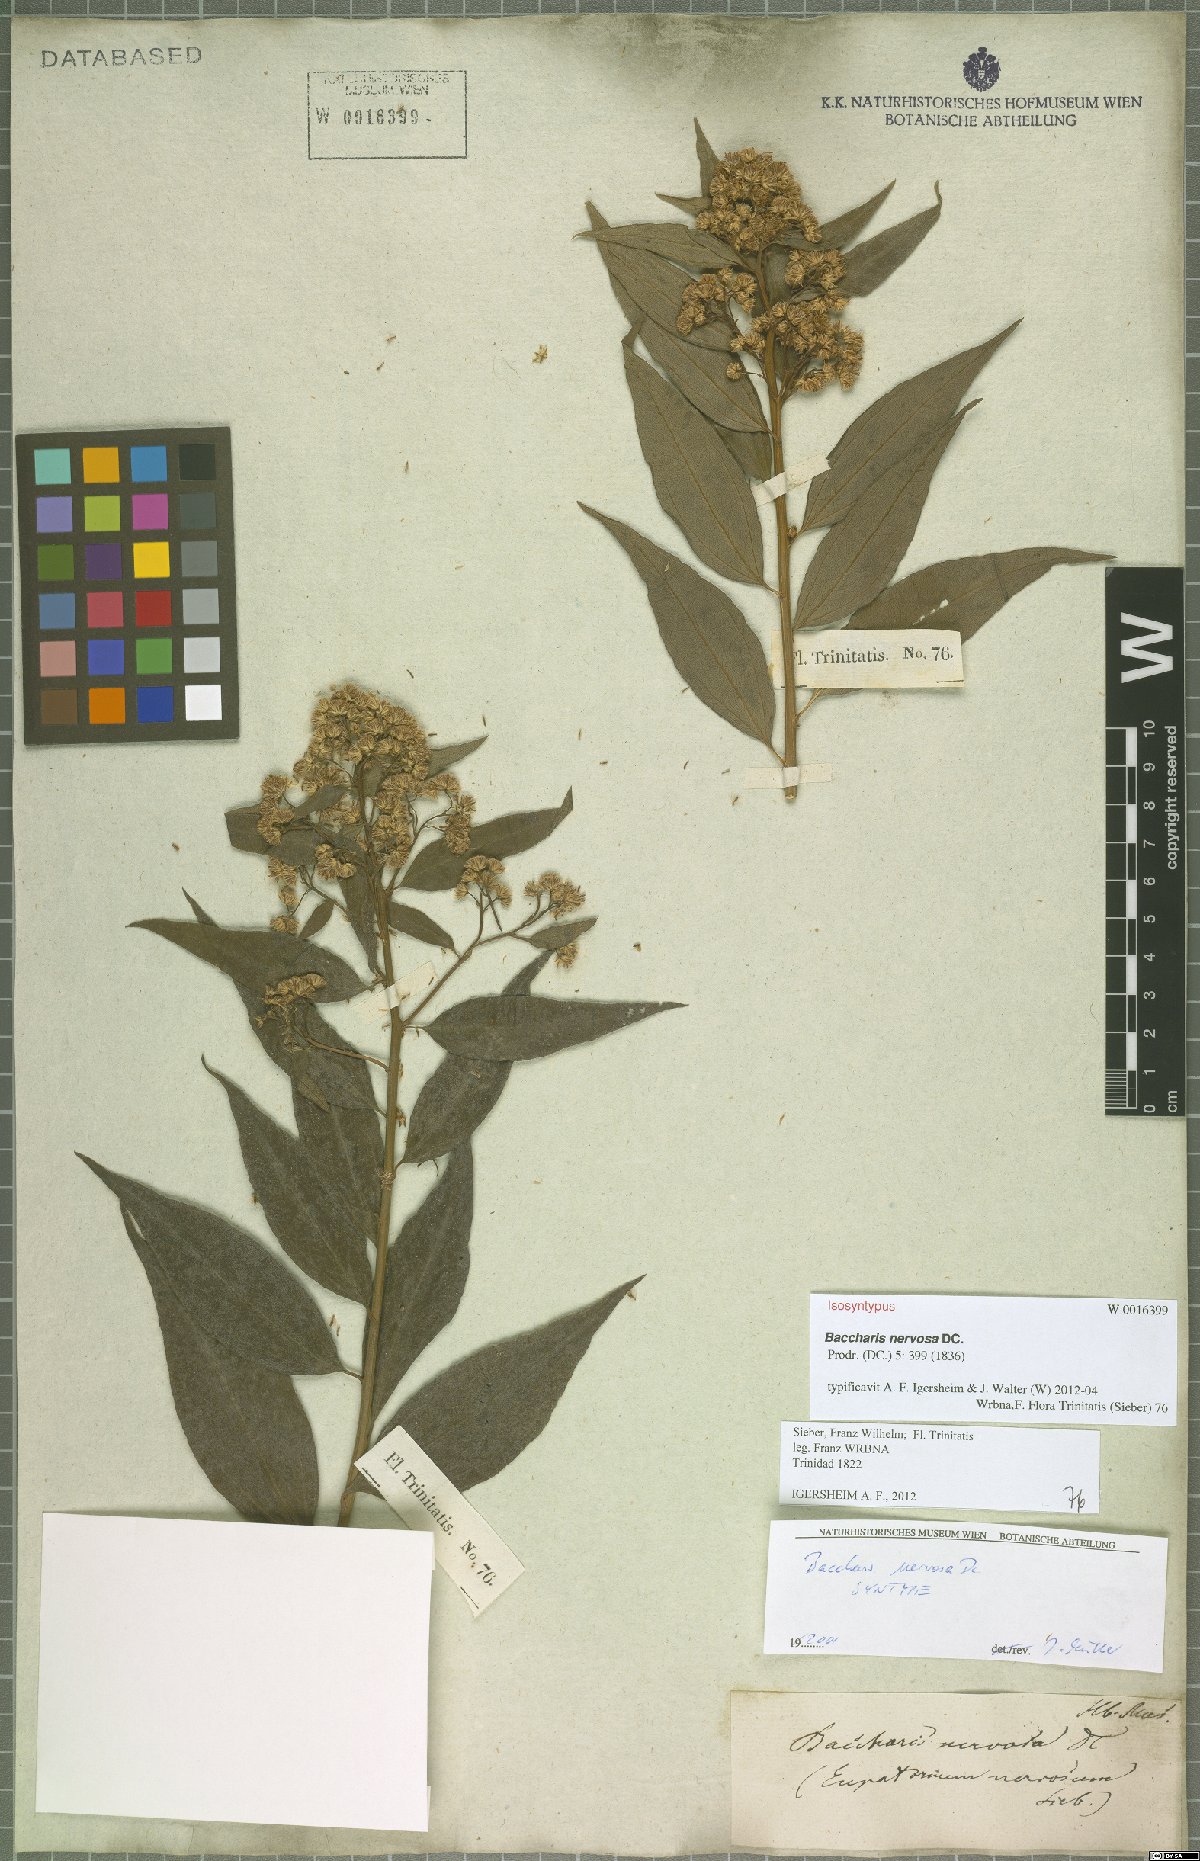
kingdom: Plantae
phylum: Tracheophyta
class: Magnoliopsida
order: Asterales
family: Asteraceae
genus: Baccharis
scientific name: Baccharis nervosa
